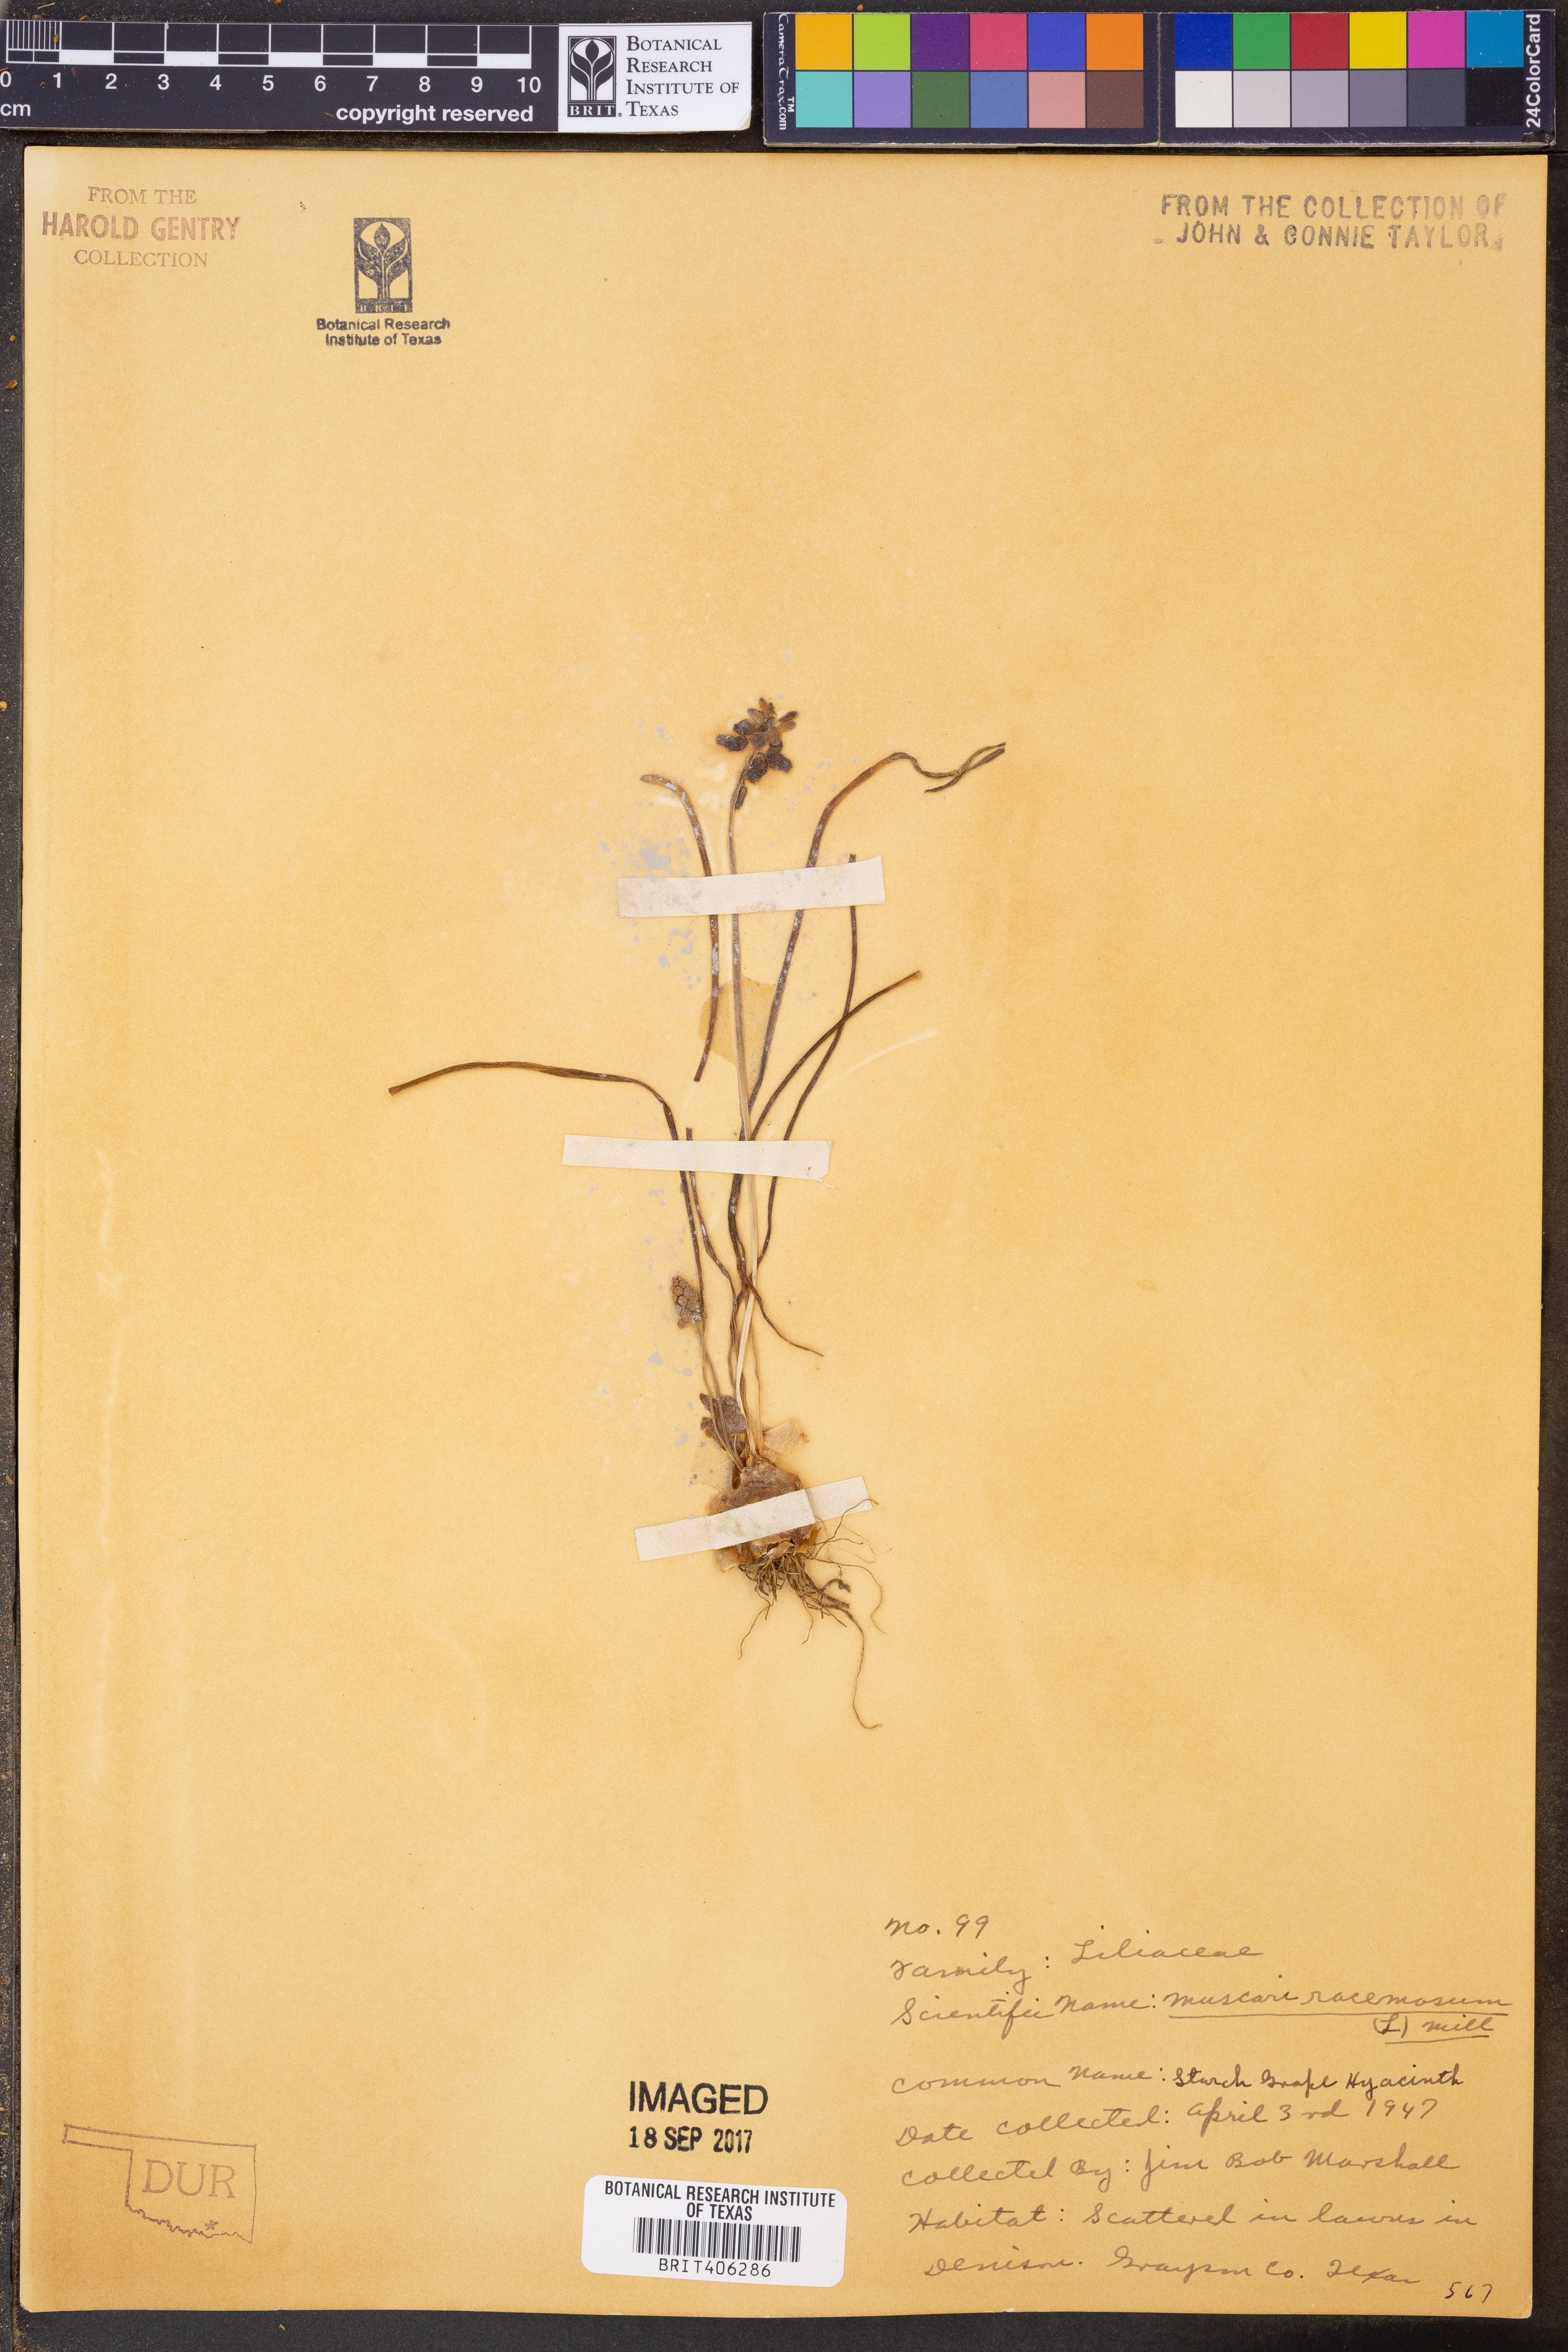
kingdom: Plantae
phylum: Tracheophyta
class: Liliopsida
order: Asparagales
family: Asparagaceae
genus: Muscarimia
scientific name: Muscarimia muscari
